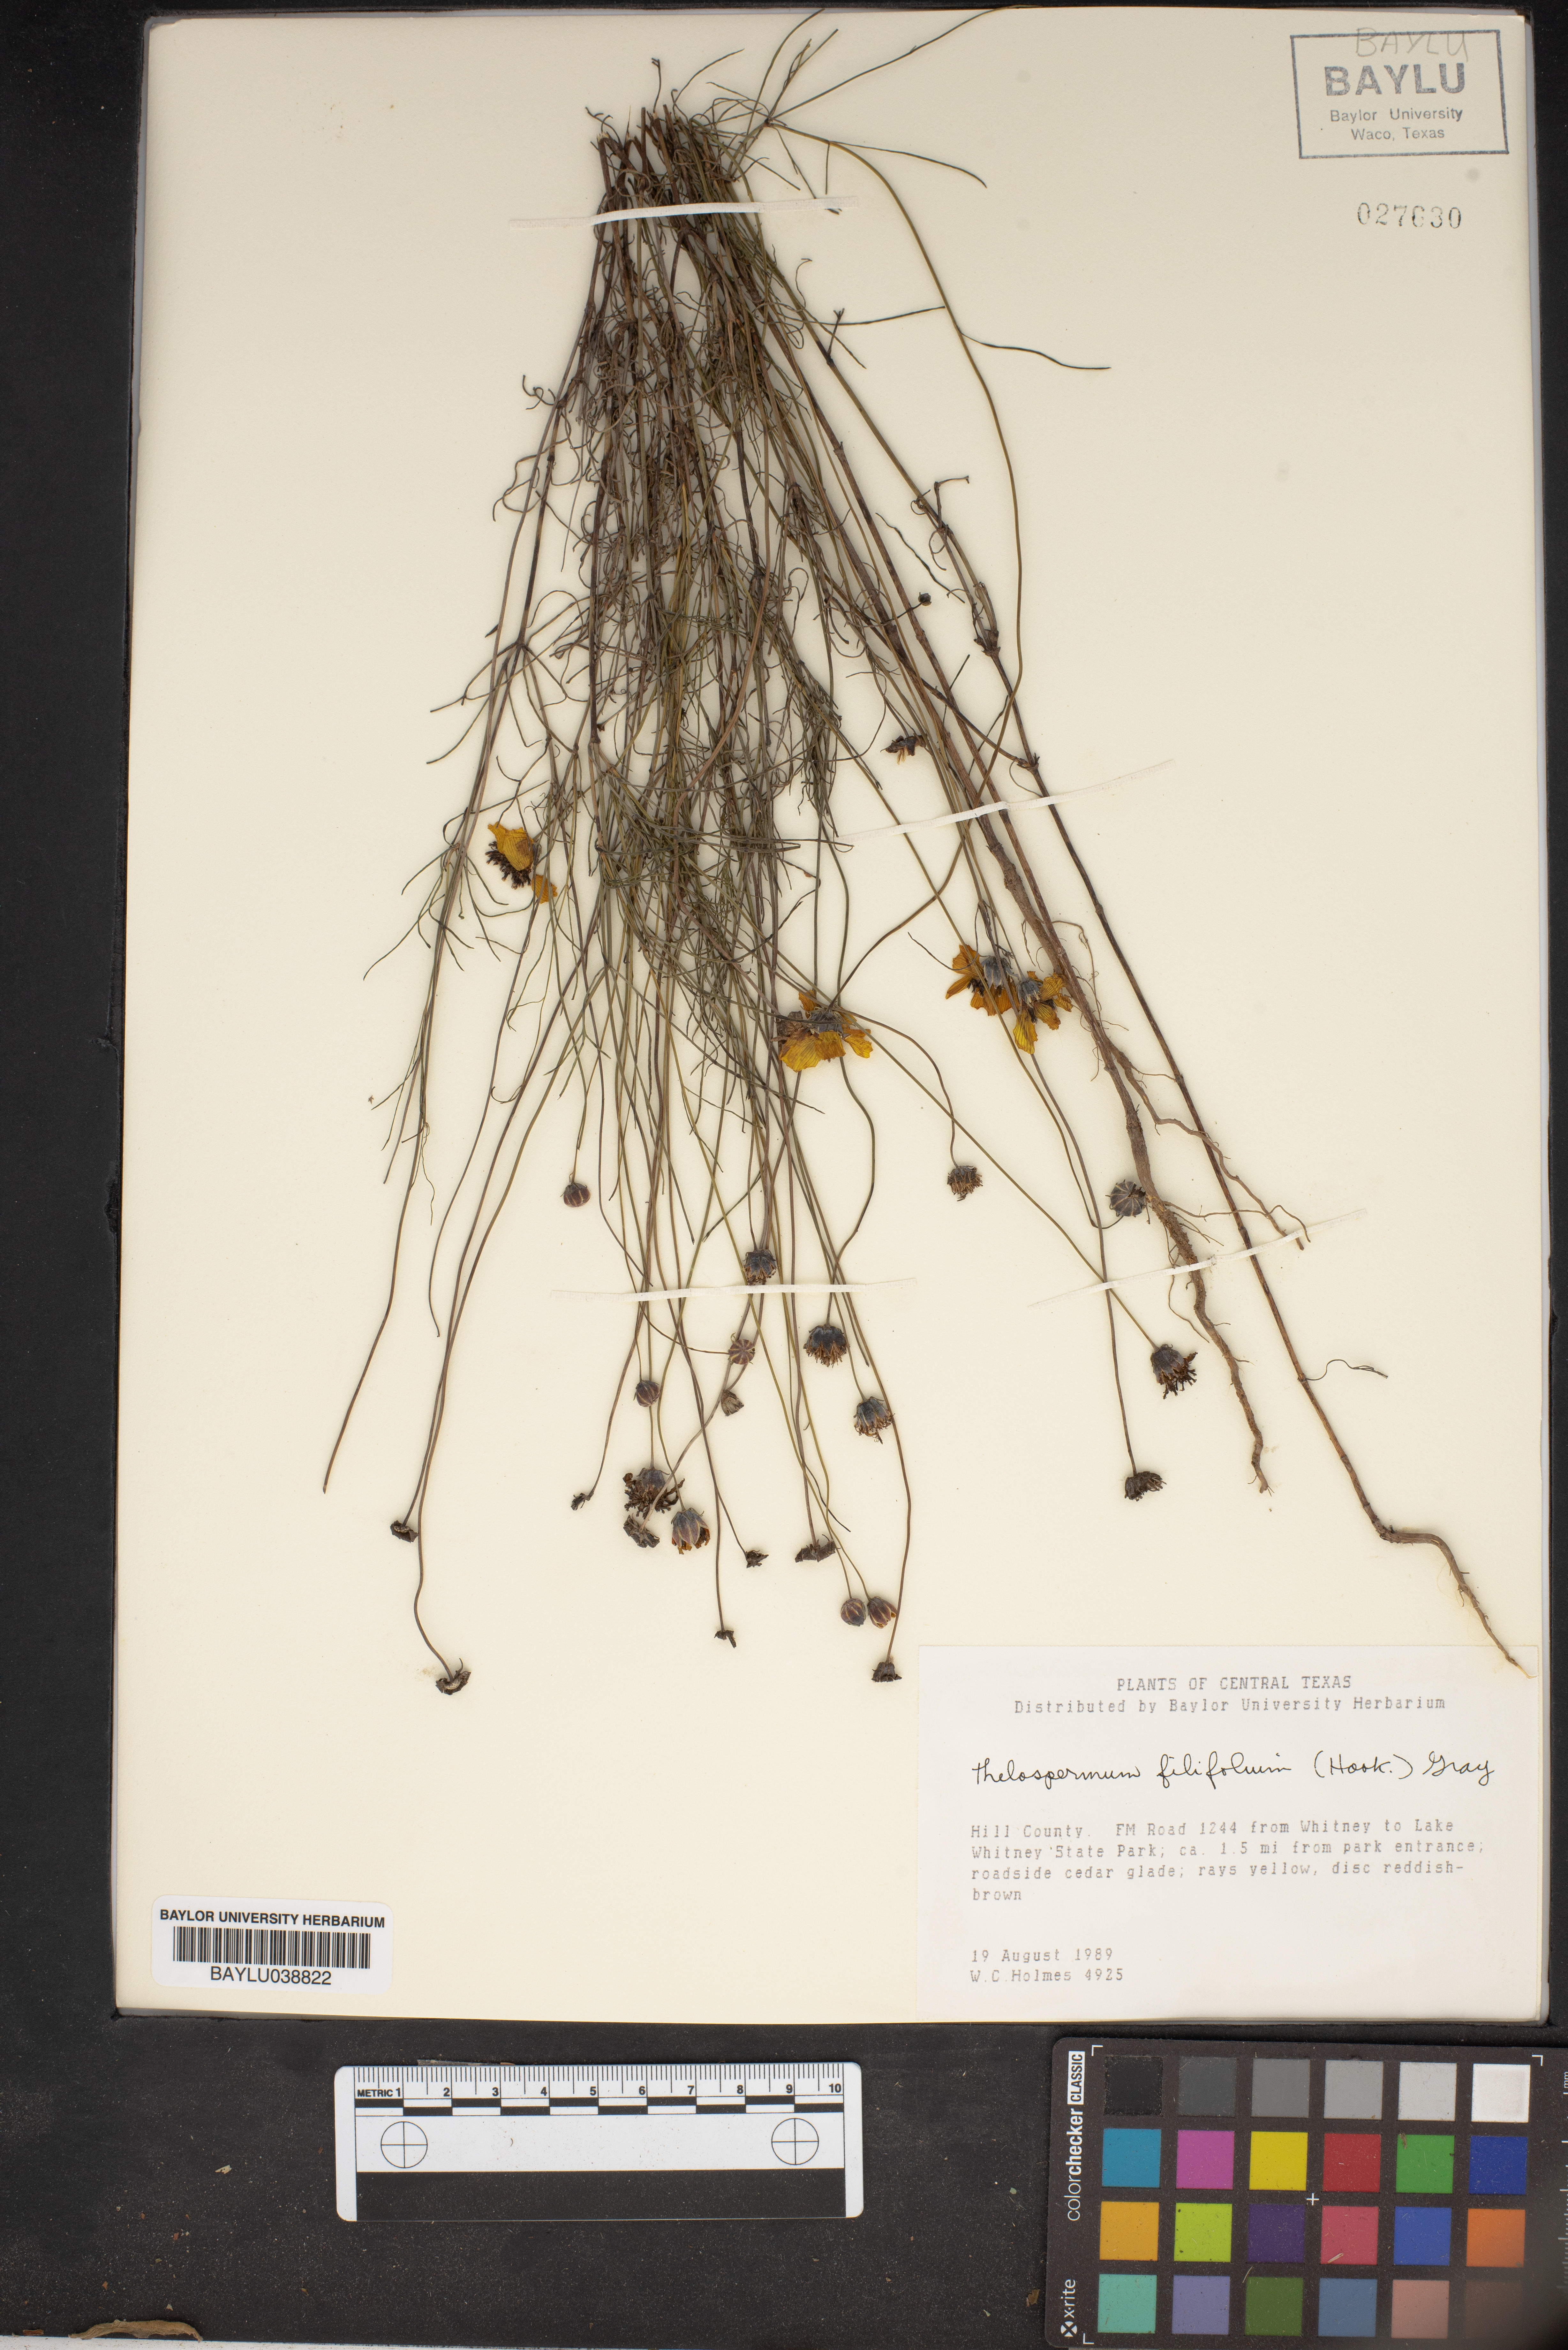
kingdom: Plantae
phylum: Tracheophyta
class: Magnoliopsida
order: Asterales
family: Asteraceae
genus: Thelesperma
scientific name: Thelesperma filifolium
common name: Stiff greenthread
